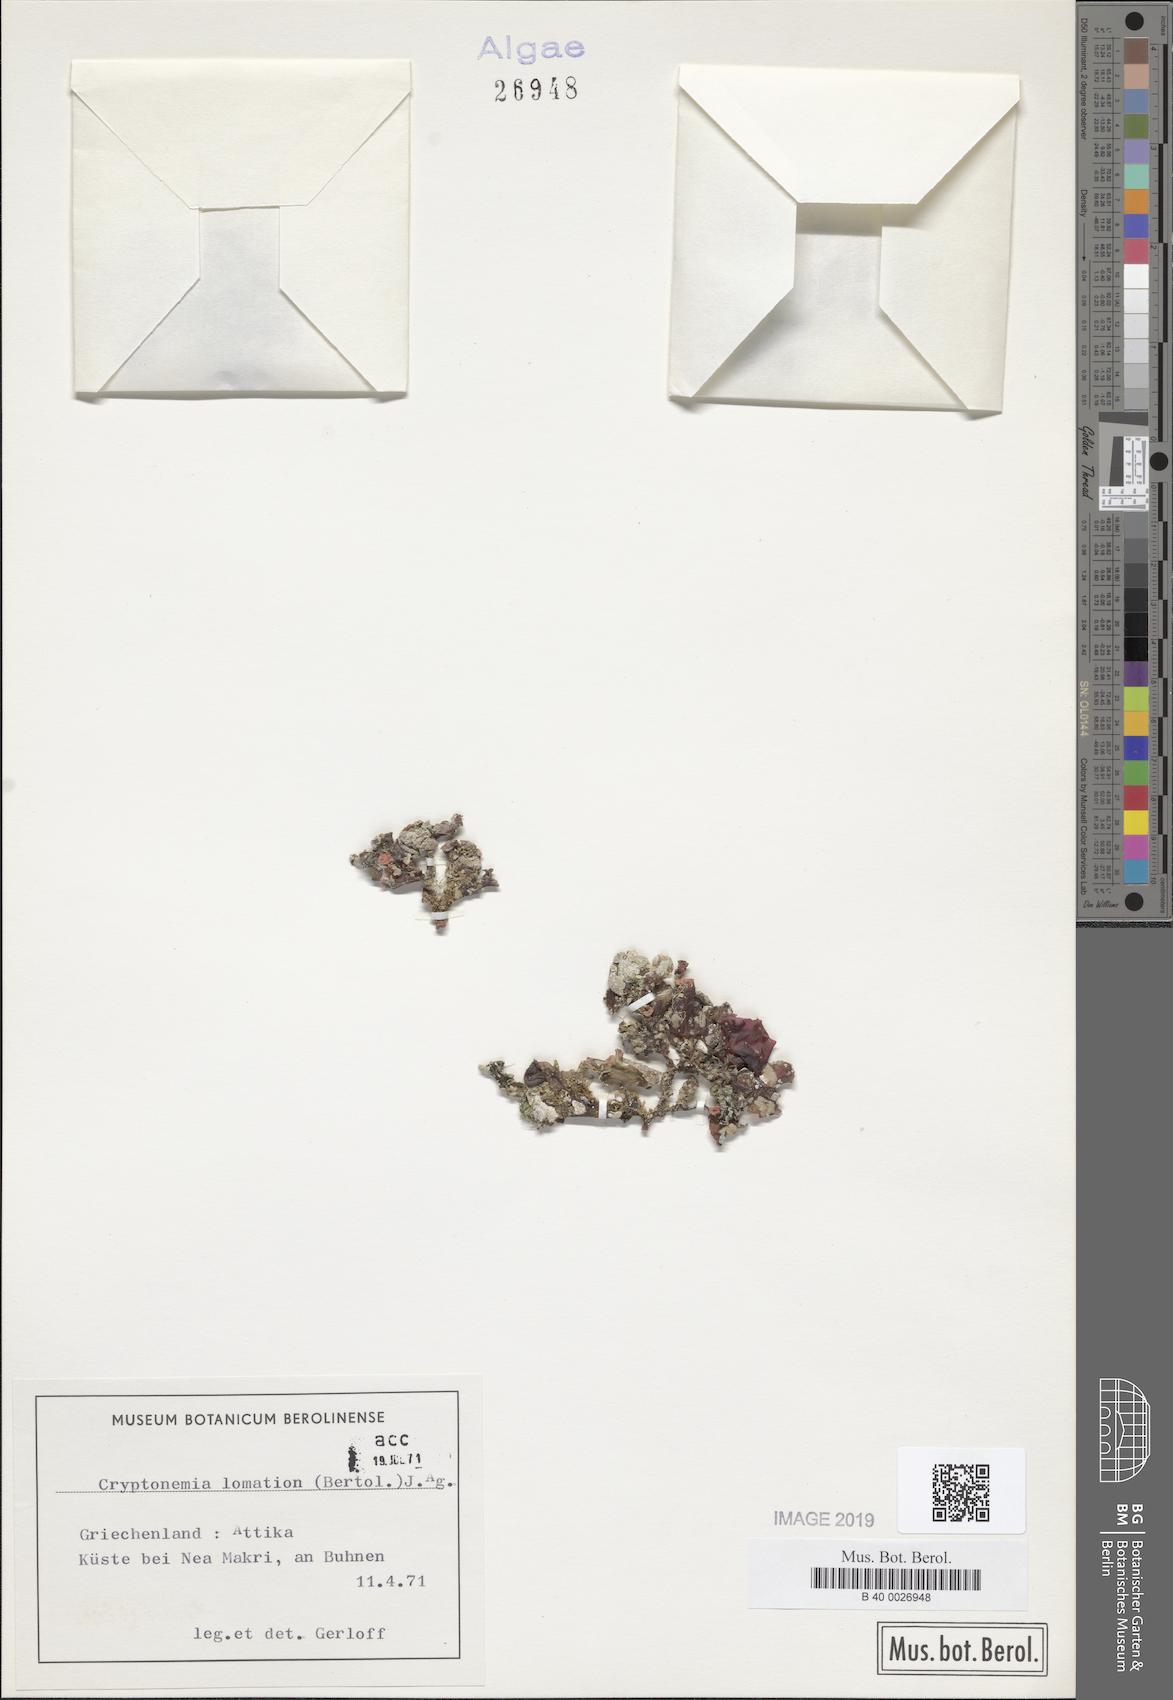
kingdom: Plantae
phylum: Rhodophyta
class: Florideophyceae
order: Halymeniales
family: Halymeniaceae
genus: Cryptonemia
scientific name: Cryptonemia lomation
